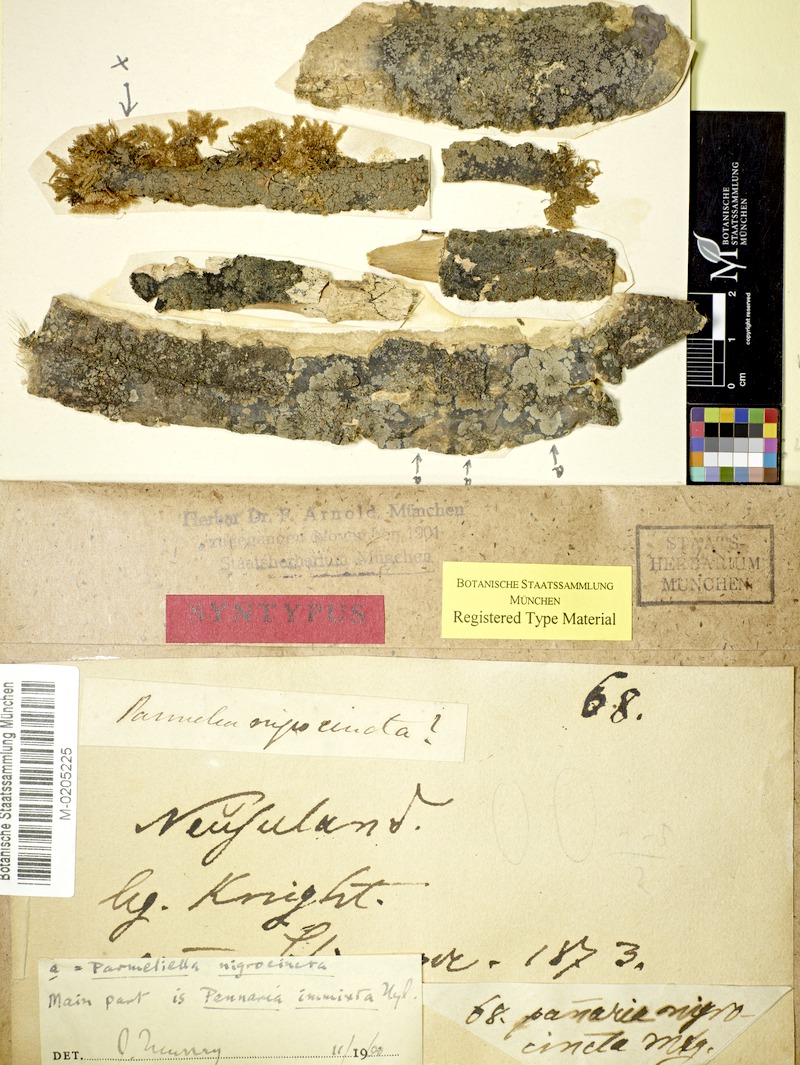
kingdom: Fungi
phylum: Ascomycota
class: Lecanoromycetes
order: Peltigerales
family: Pannariaceae
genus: Pannaria
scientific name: Pannaria immixta
